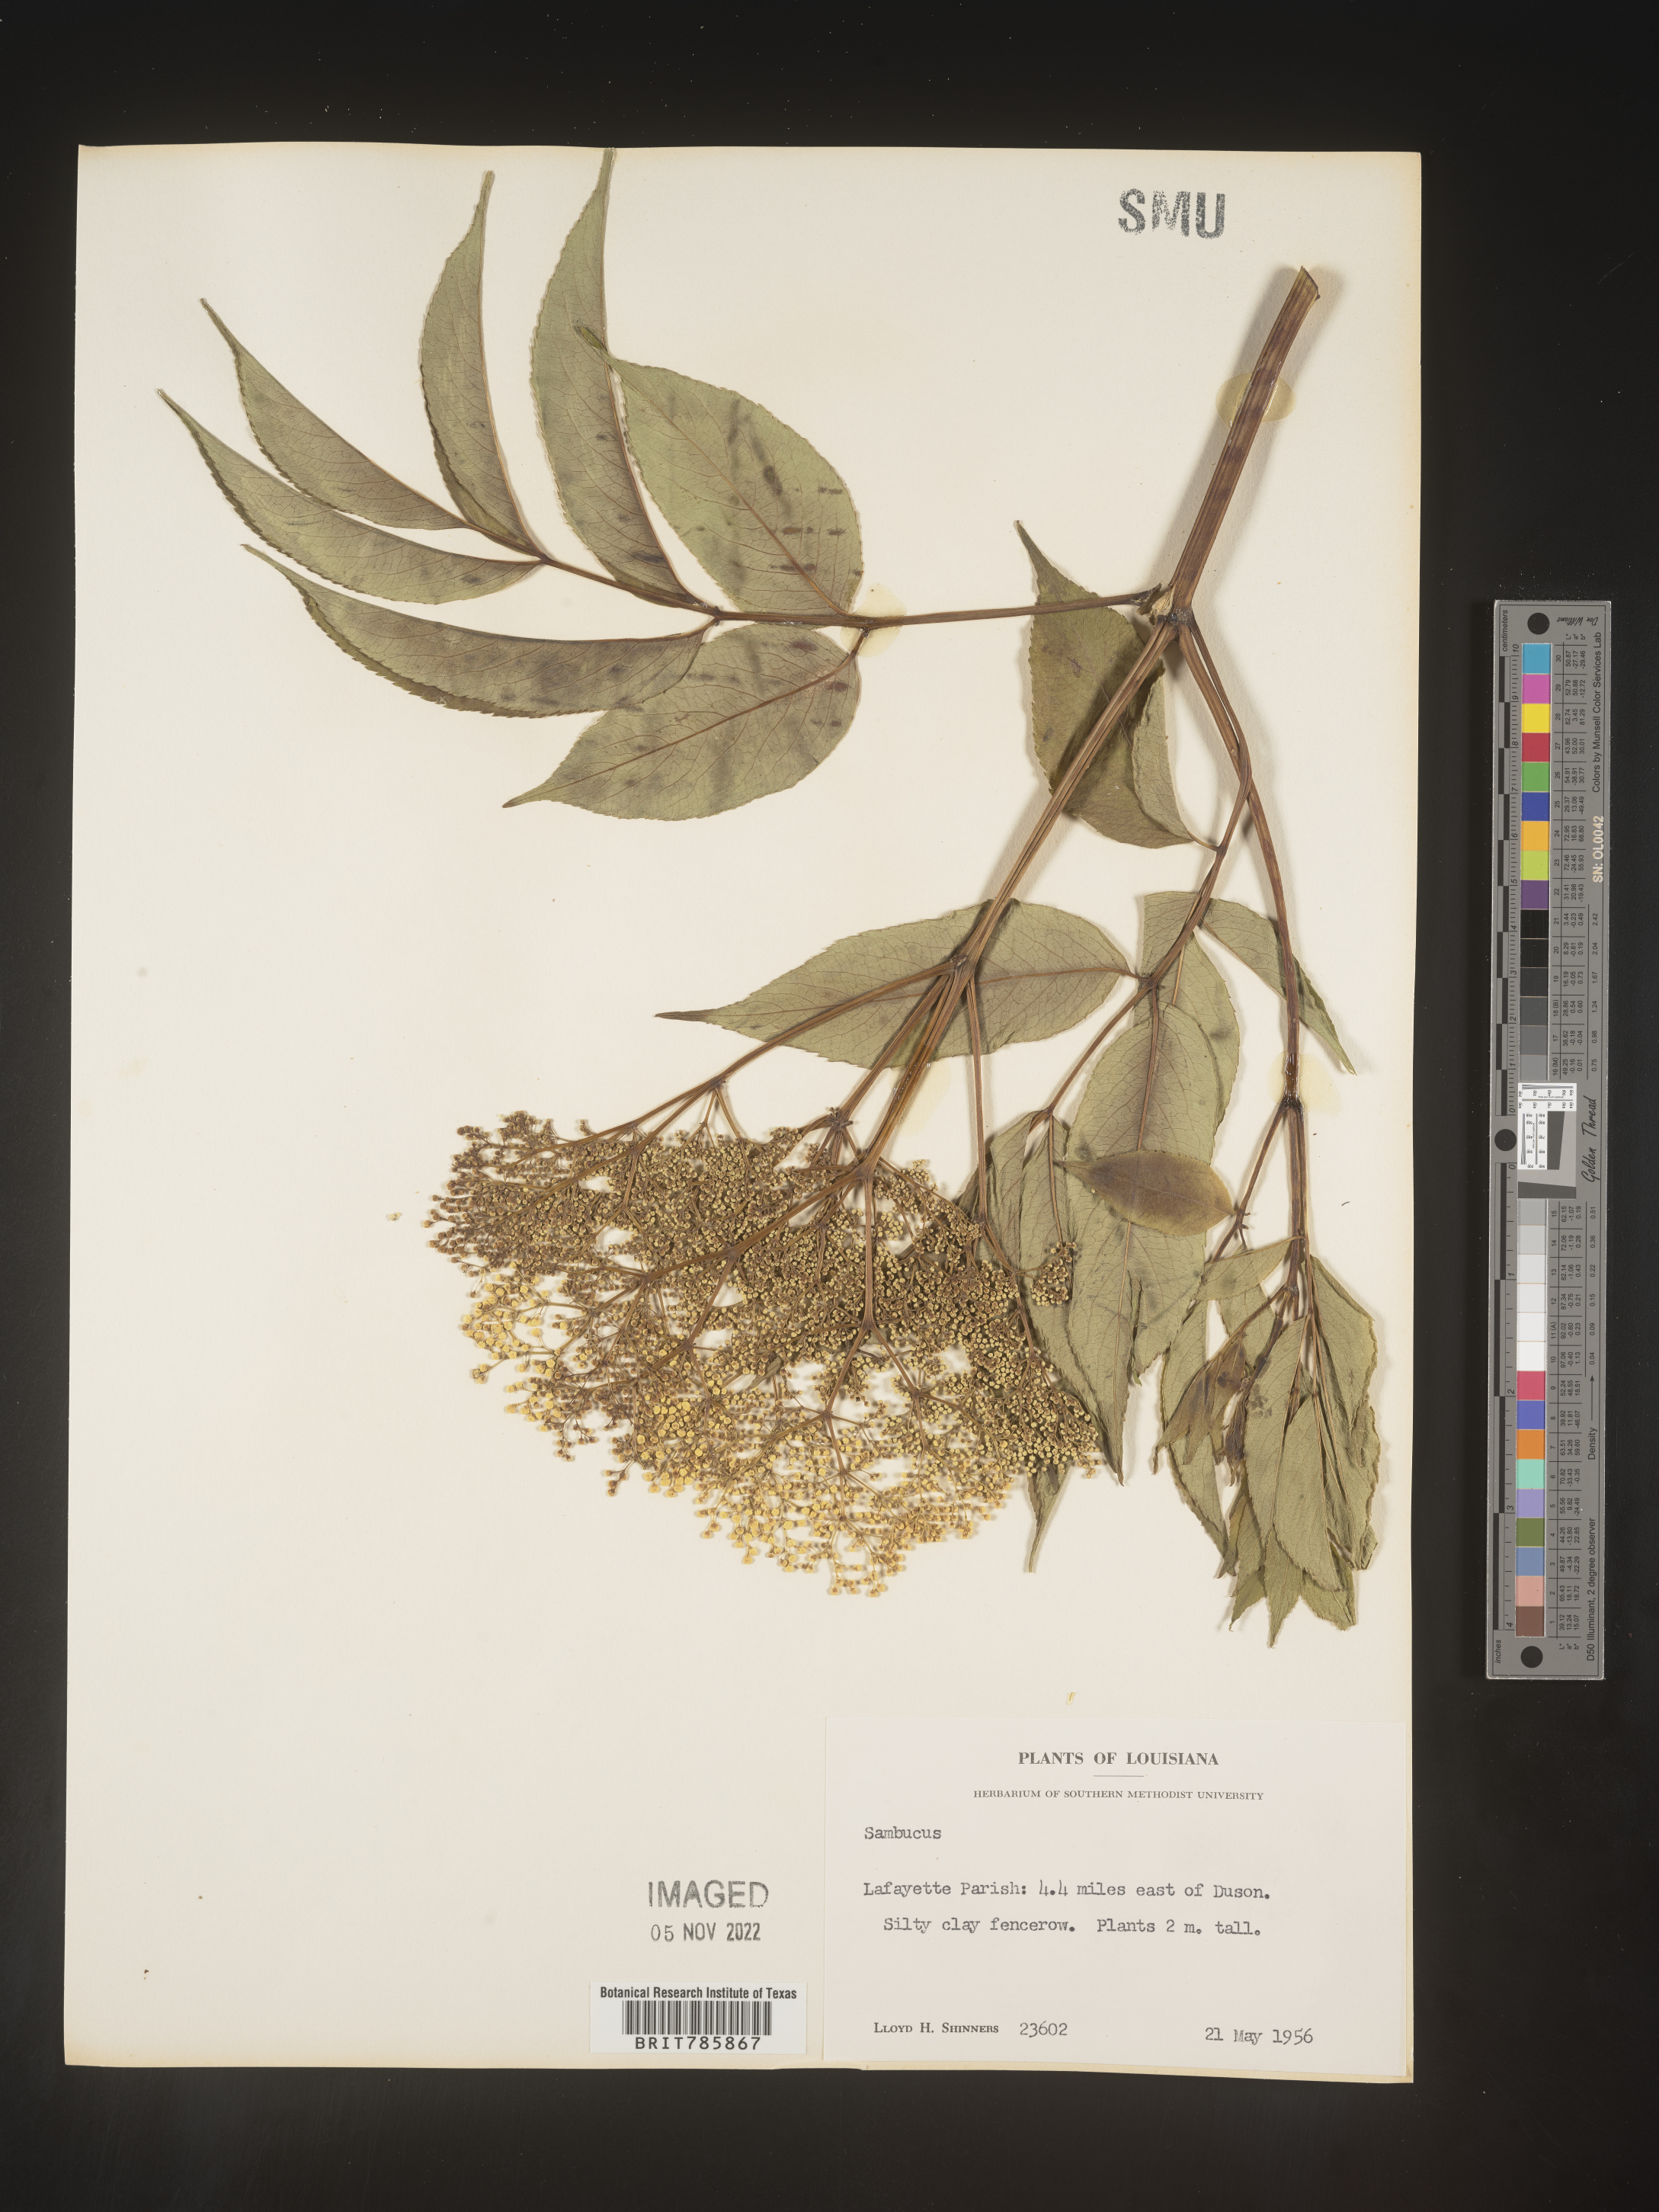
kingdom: Plantae
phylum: Tracheophyta
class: Magnoliopsida
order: Dipsacales
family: Viburnaceae
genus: Sambucus
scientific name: Sambucus nigra
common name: Elder
